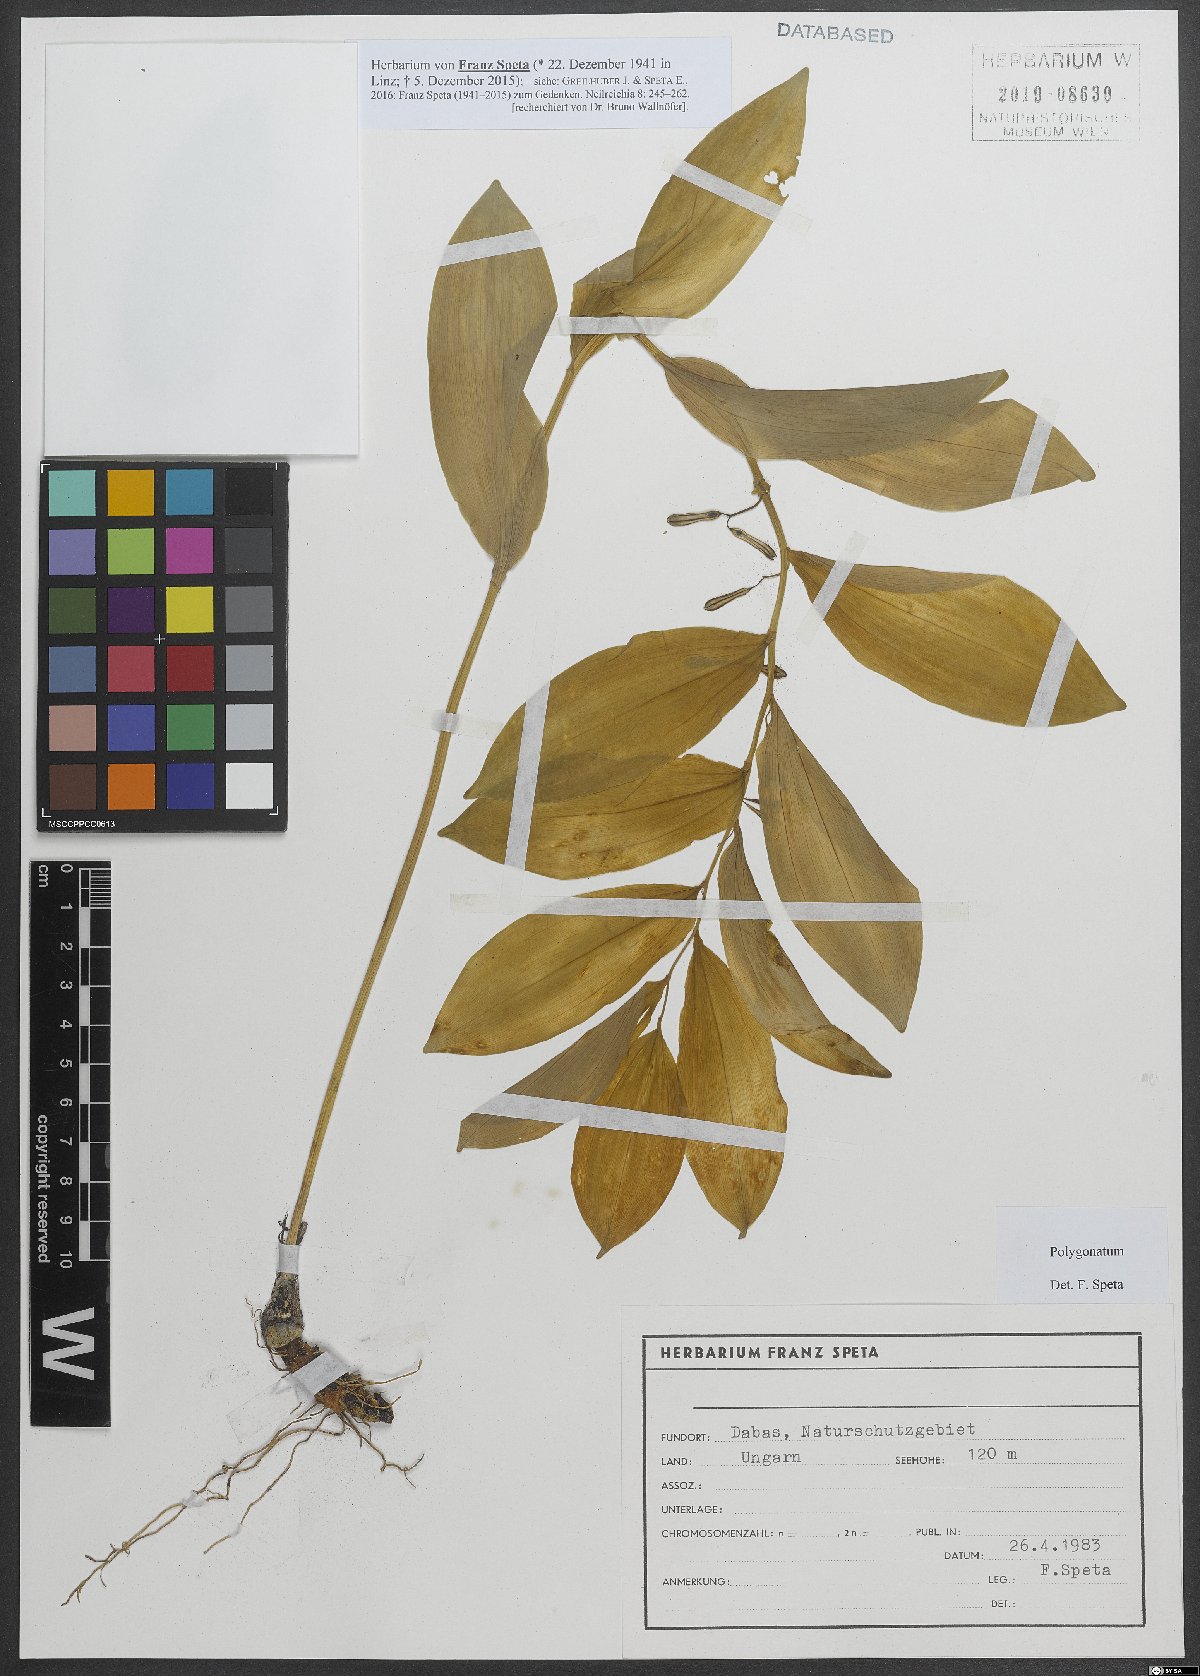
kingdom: Plantae
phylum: Tracheophyta
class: Liliopsida
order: Asparagales
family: Asparagaceae
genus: Polygonatum
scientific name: Polygonatum
